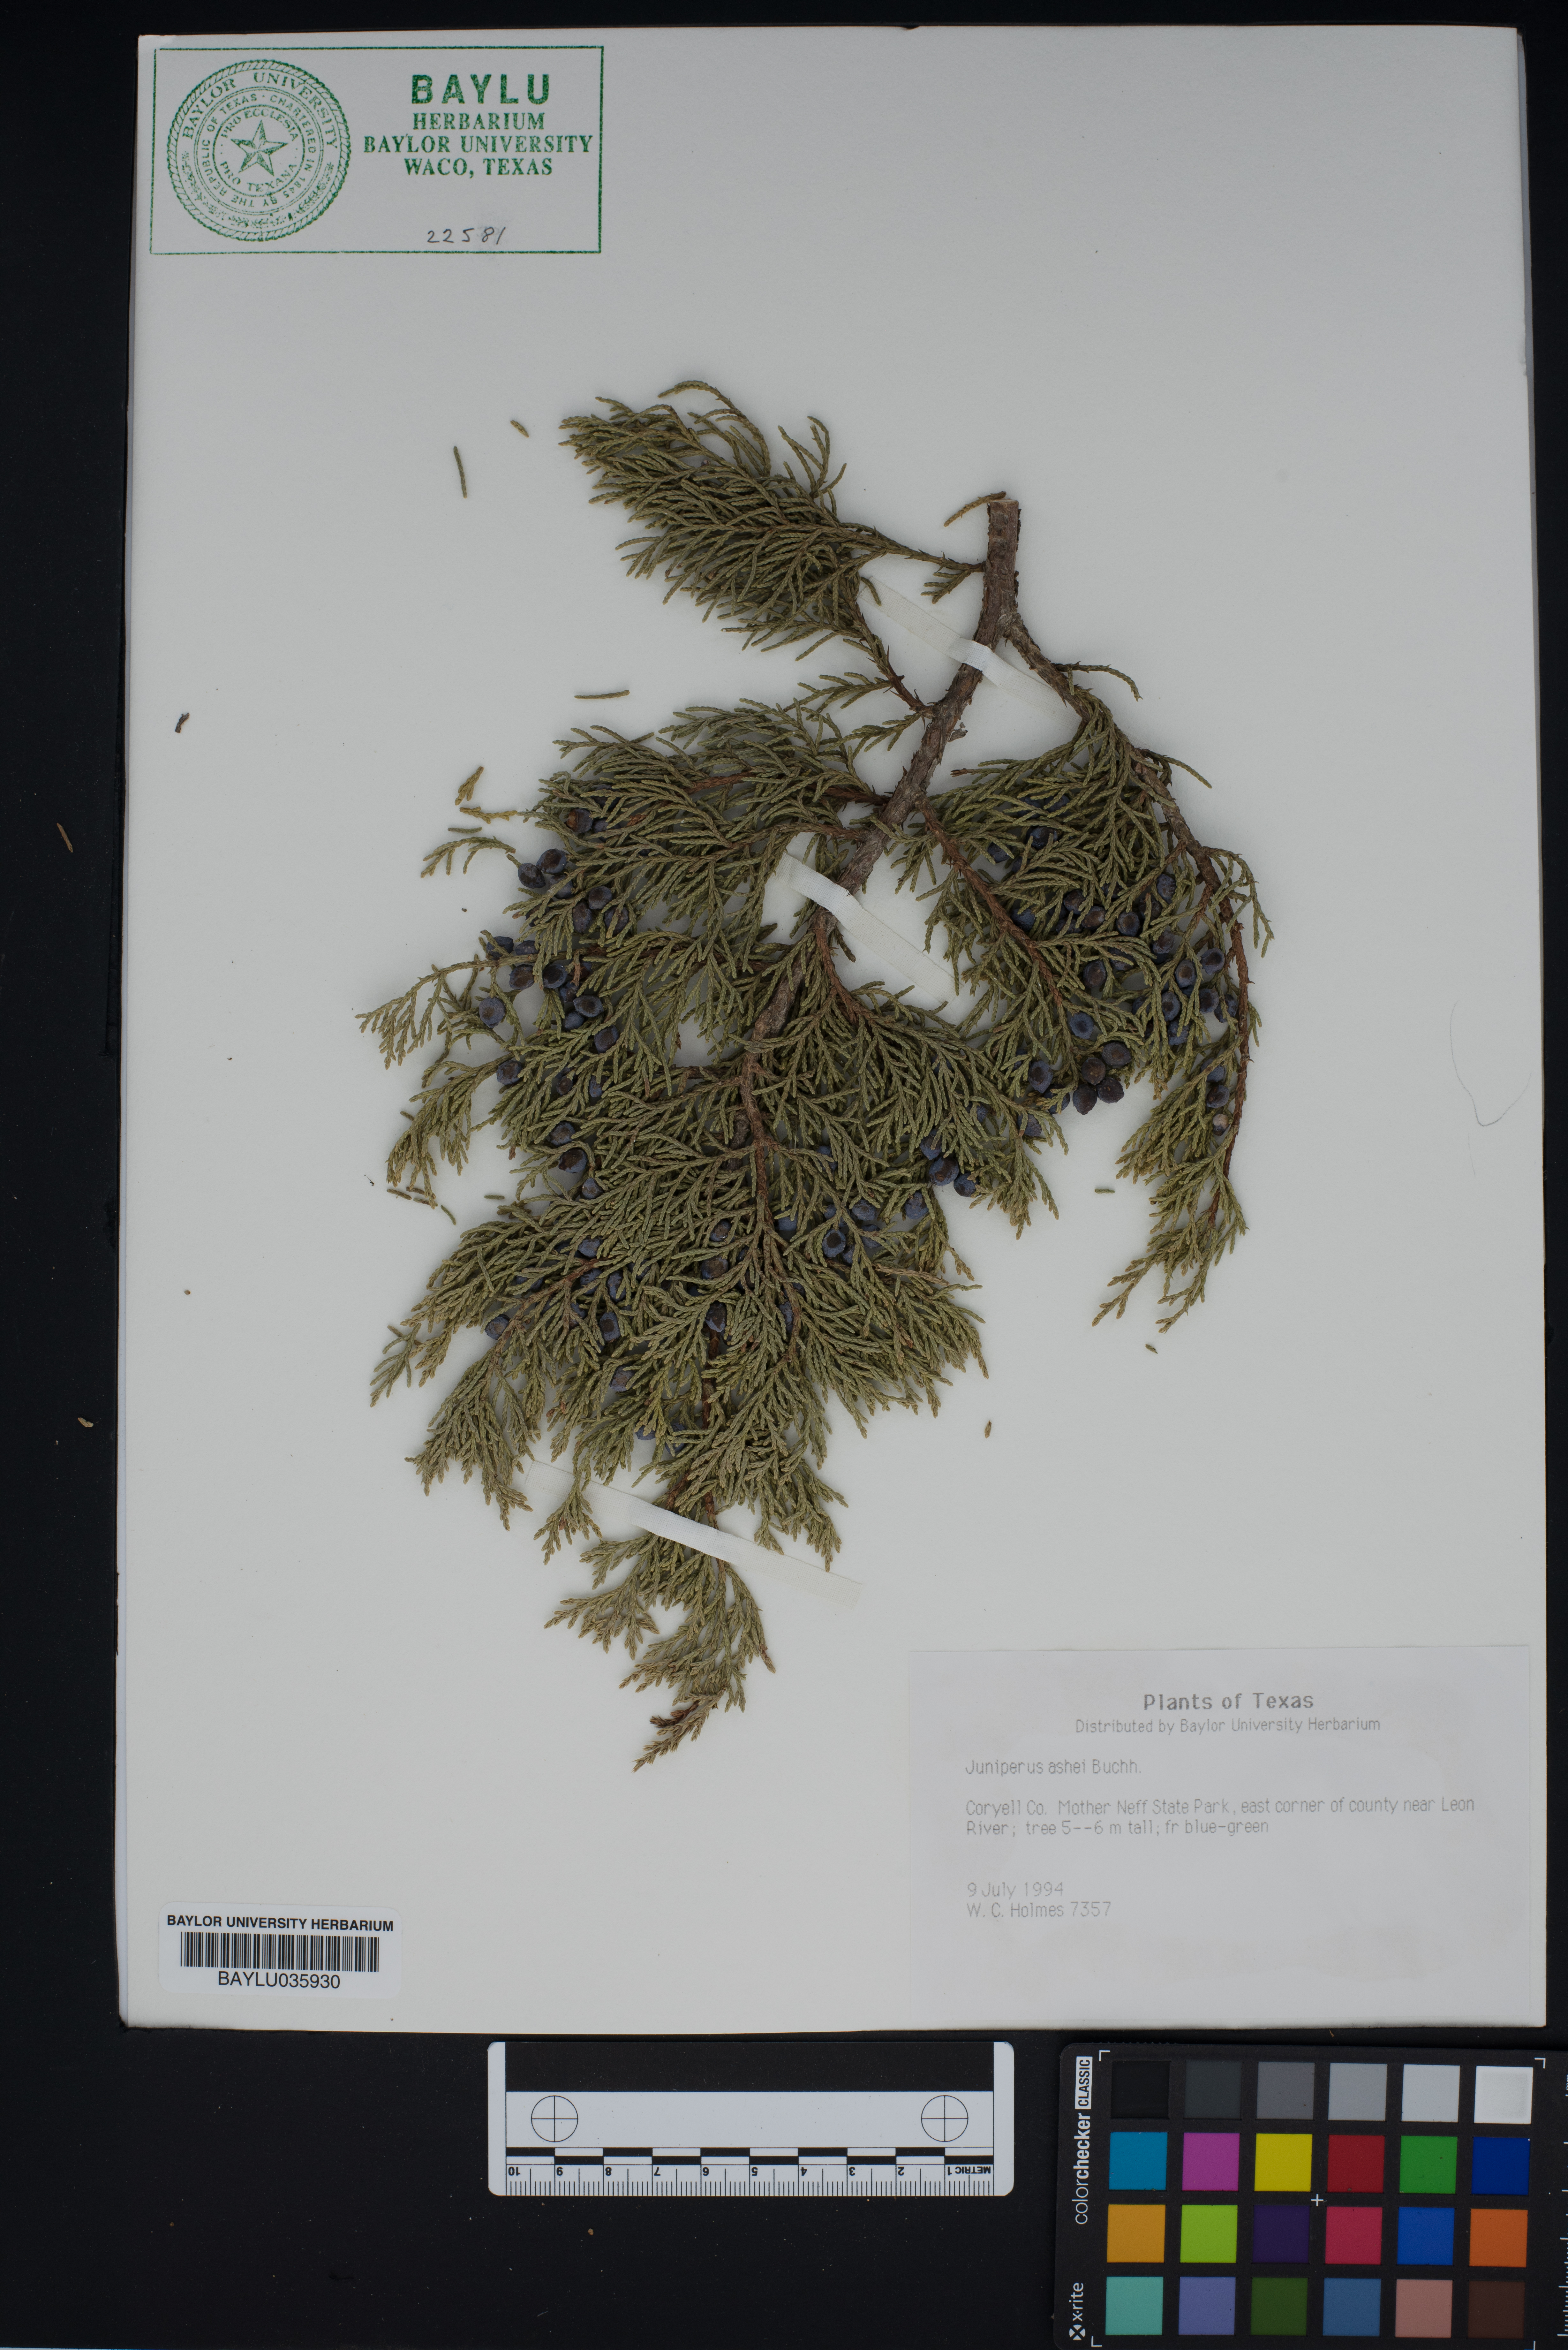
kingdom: Plantae
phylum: Tracheophyta
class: Pinopsida
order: Pinales
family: Cupressaceae
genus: Juniperus
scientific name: Juniperus ashei
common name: Mexican juniper
